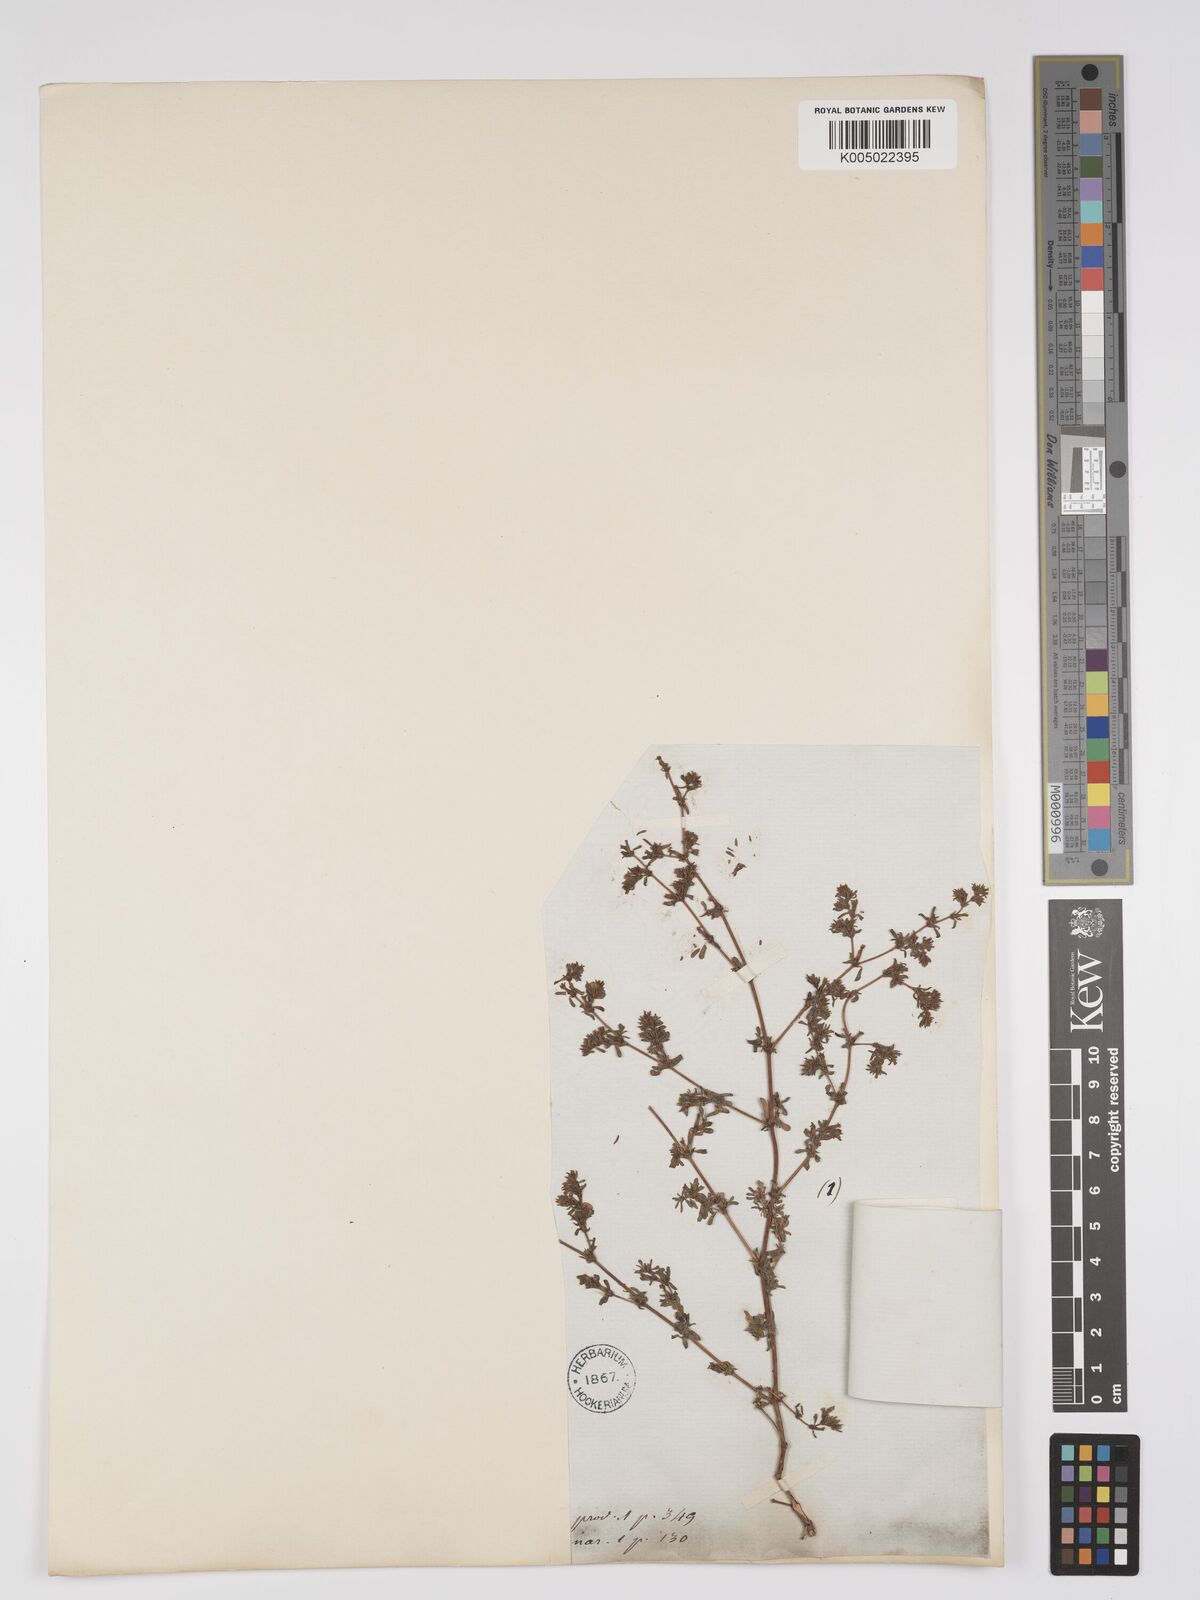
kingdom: Plantae
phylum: Tracheophyta
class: Magnoliopsida
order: Caryophyllales
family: Frankeniaceae
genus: Frankenia
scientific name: Frankenia pulverulenta
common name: European seaheath
